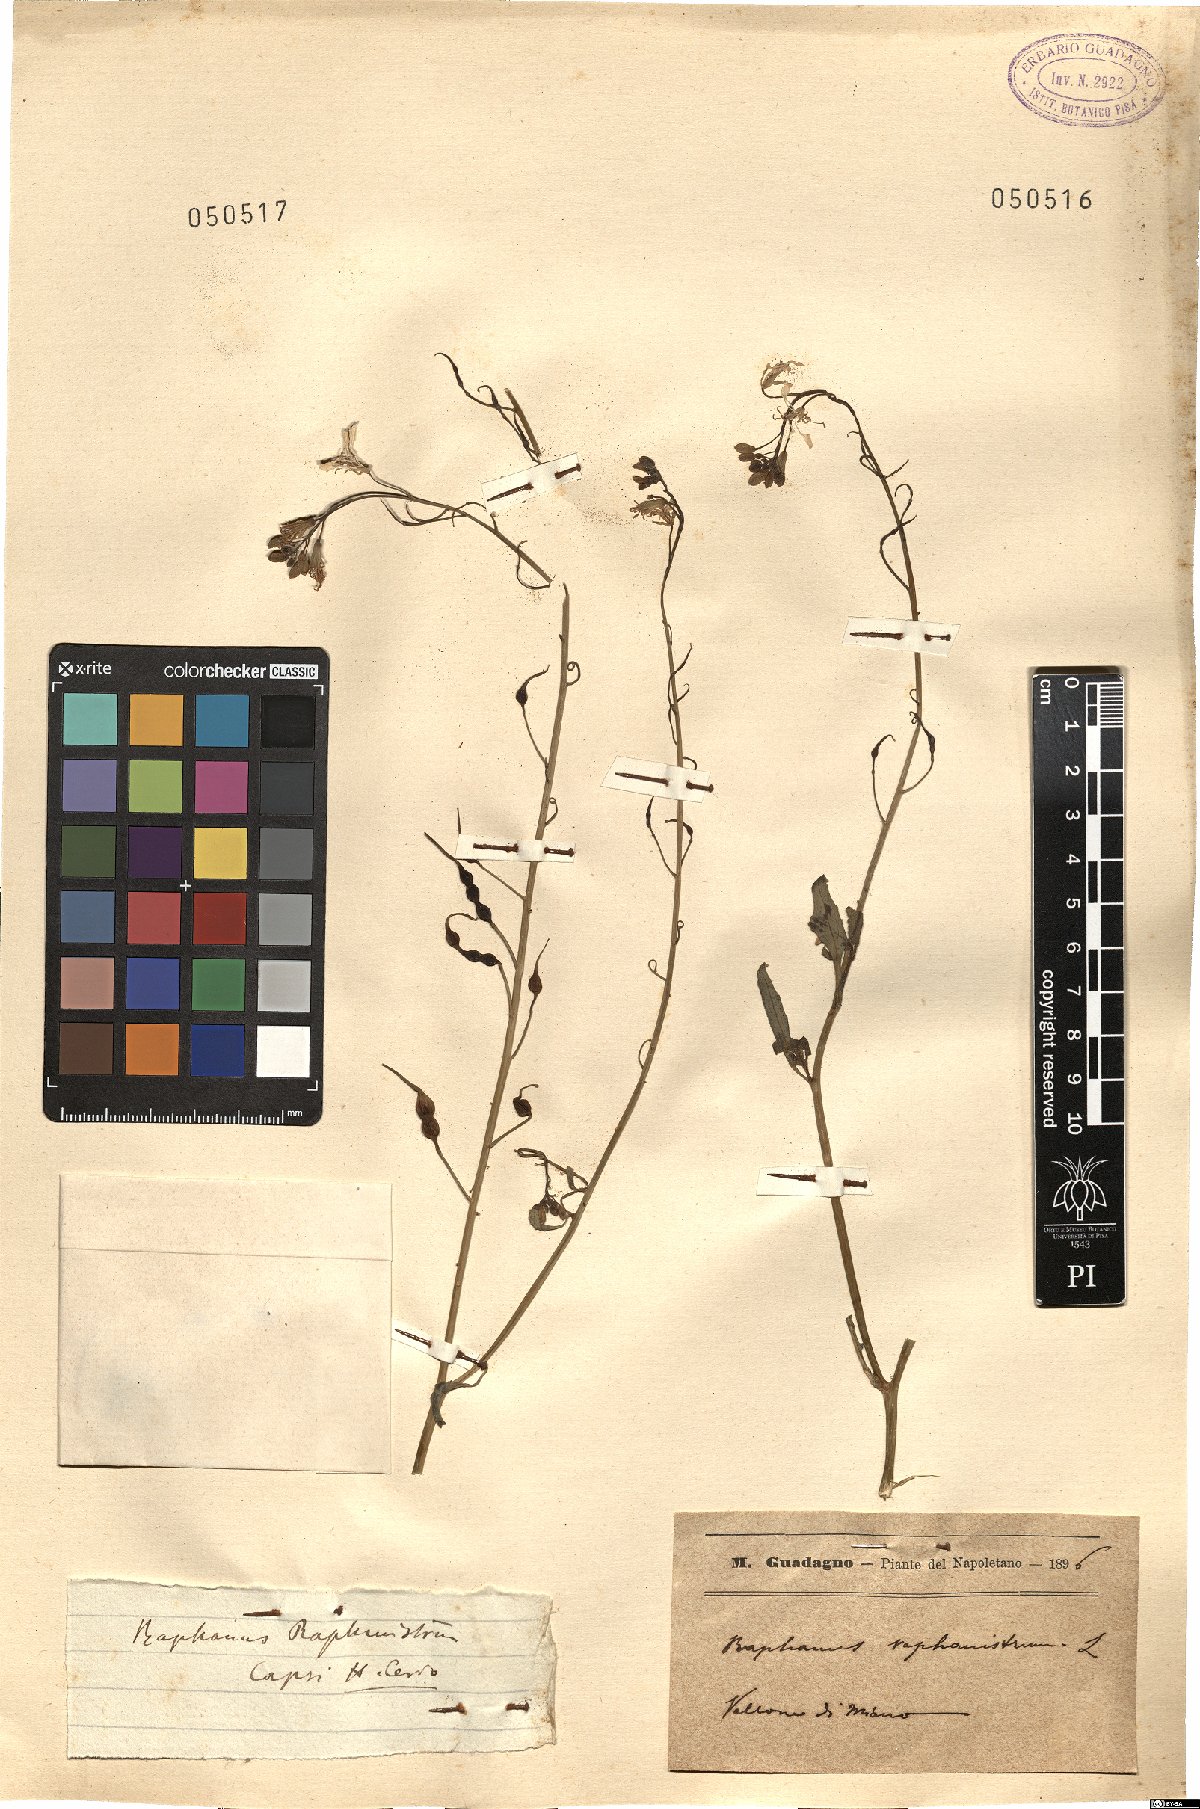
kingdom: Plantae
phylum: Tracheophyta
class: Magnoliopsida
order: Brassicales
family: Brassicaceae
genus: Raphanus
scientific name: Raphanus raphanistrum
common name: Wild radish
